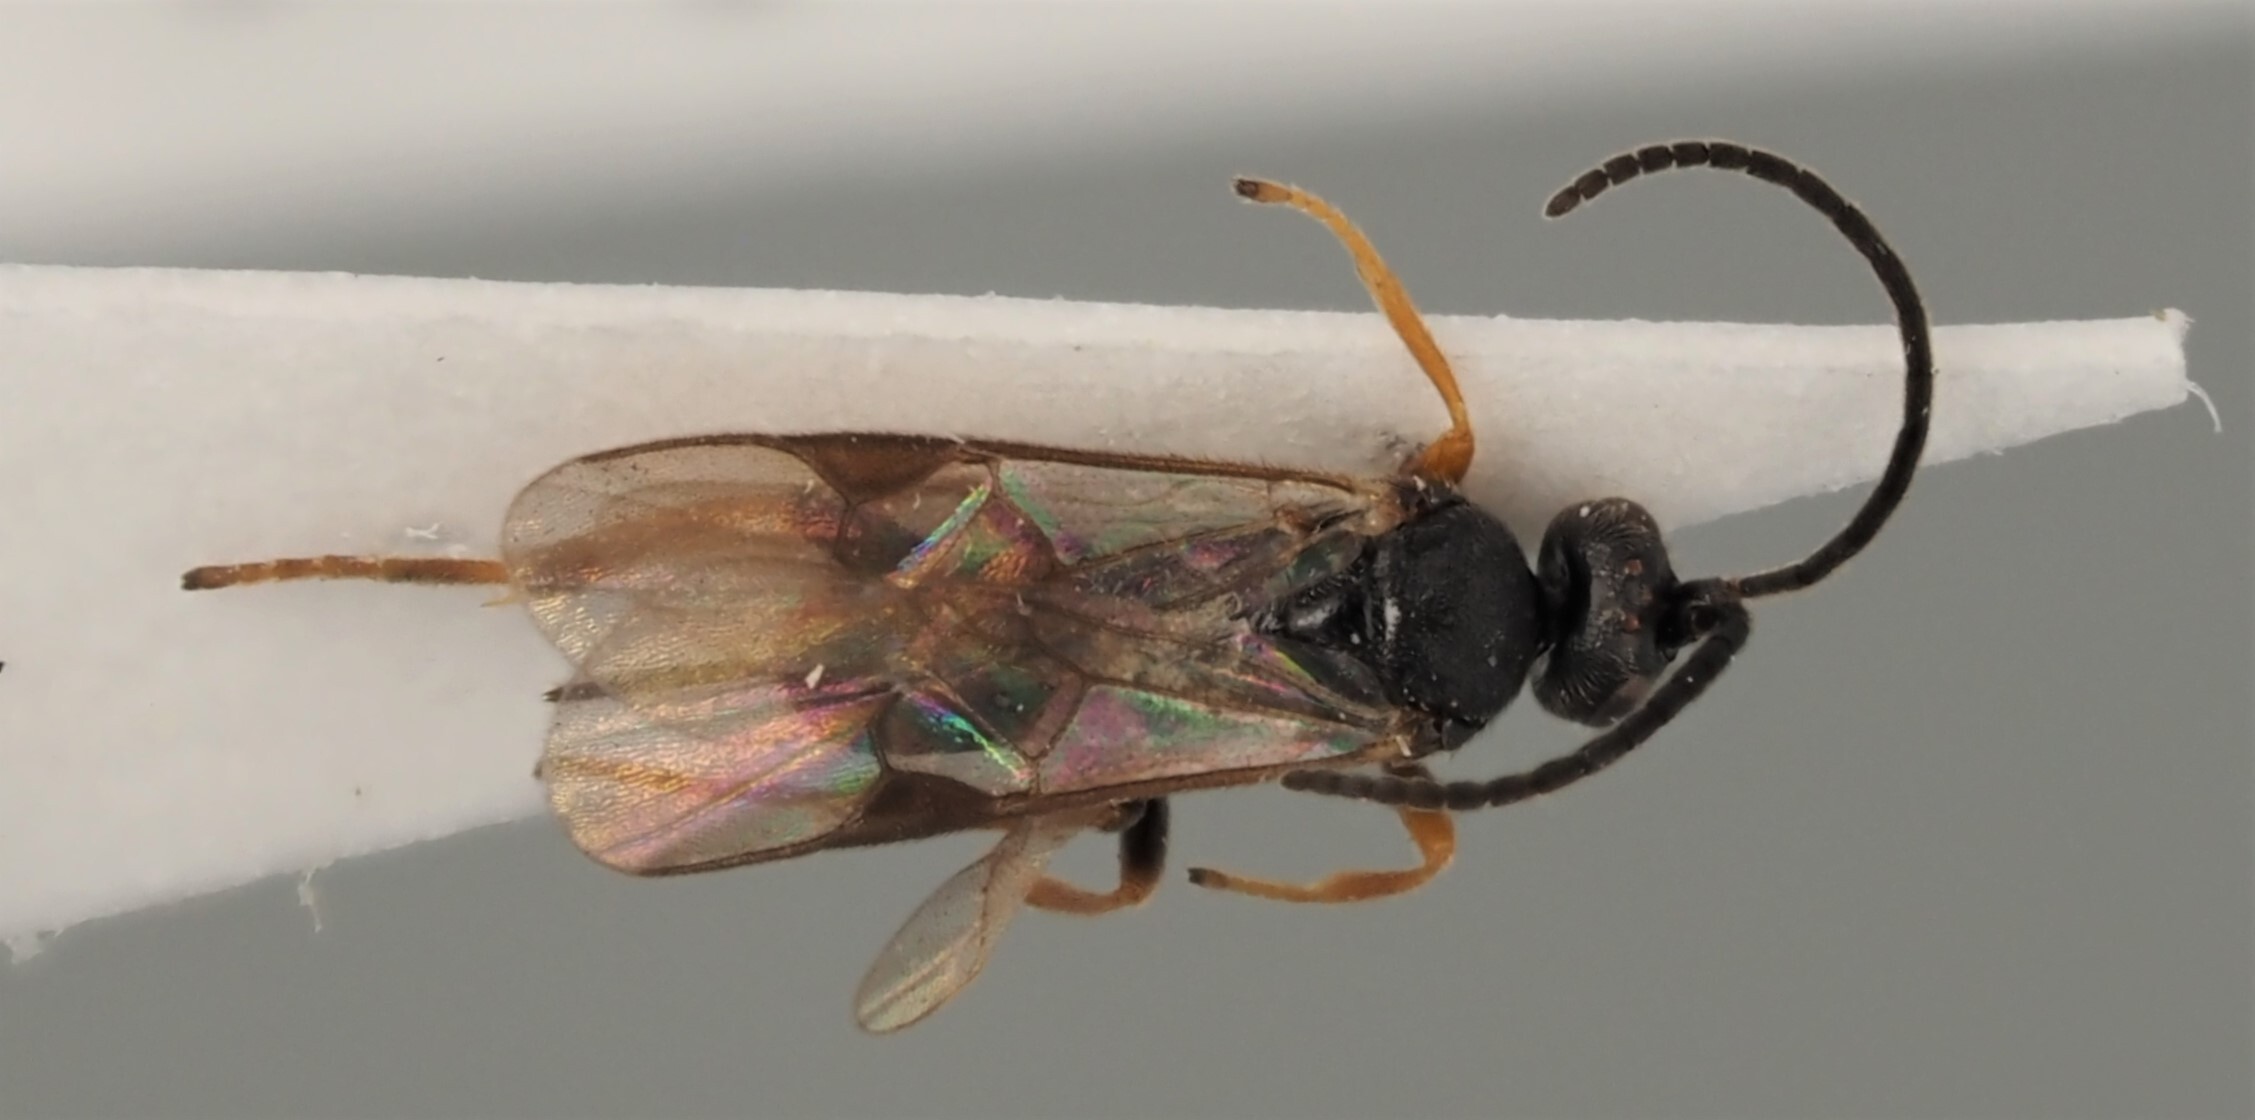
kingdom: Animalia
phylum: Arthropoda
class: Insecta
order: Hymenoptera
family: Braconidae
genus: Apanteles
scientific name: Apanteles brunnistigma
